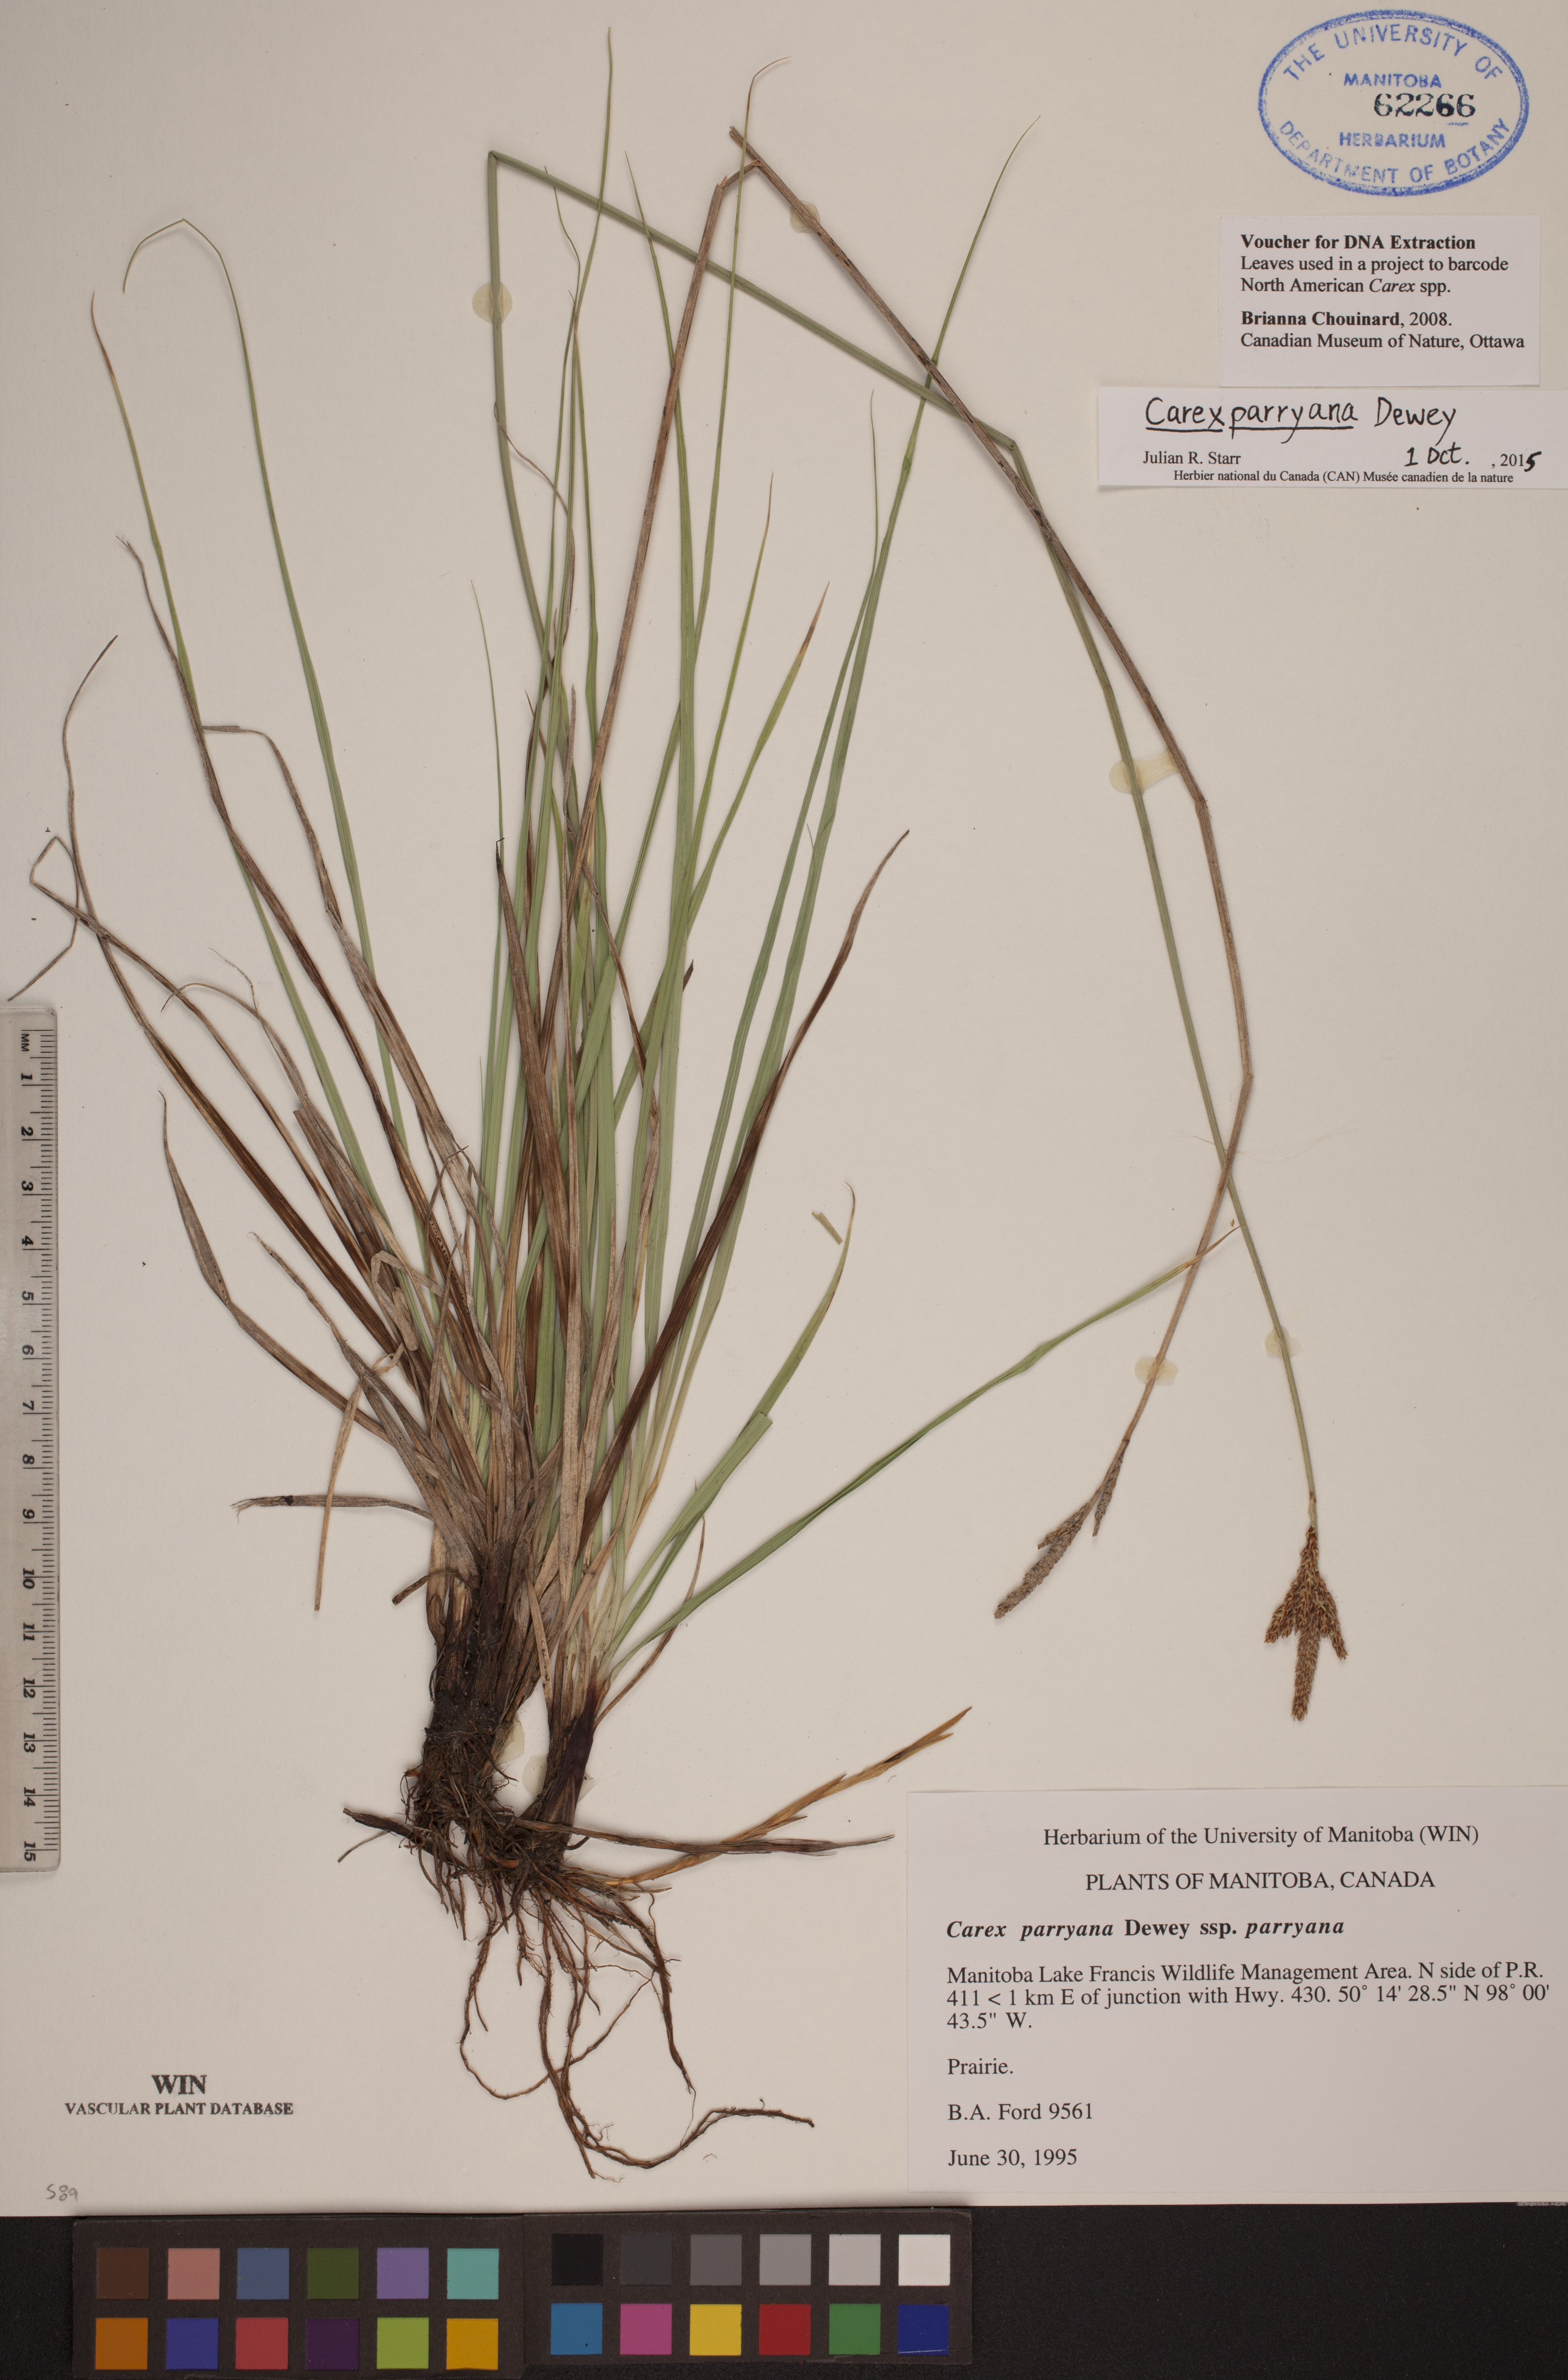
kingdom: Plantae
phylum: Tracheophyta
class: Liliopsida
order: Poales
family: Cyperaceae
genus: Carex
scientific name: Carex parryana
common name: Parry's sedge
